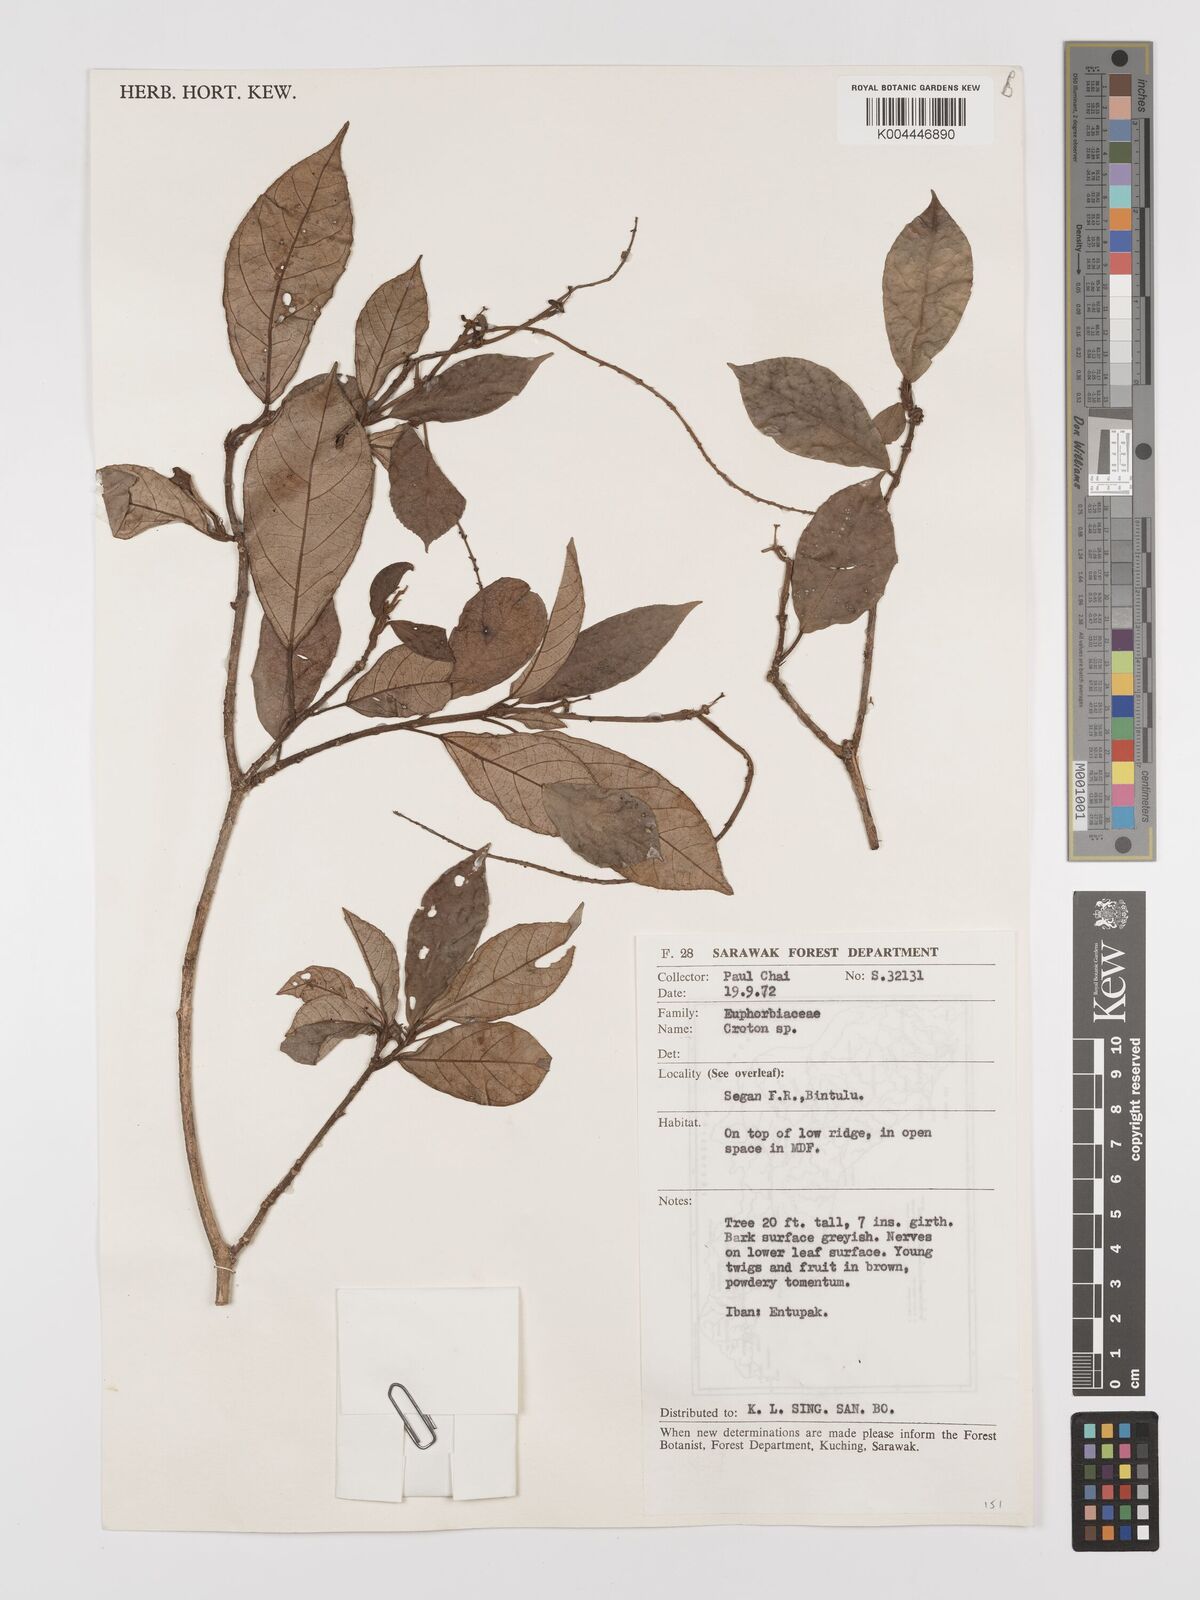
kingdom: Plantae
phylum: Tracheophyta
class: Magnoliopsida
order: Malpighiales
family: Euphorbiaceae
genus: Croton
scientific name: Croton oblongus
